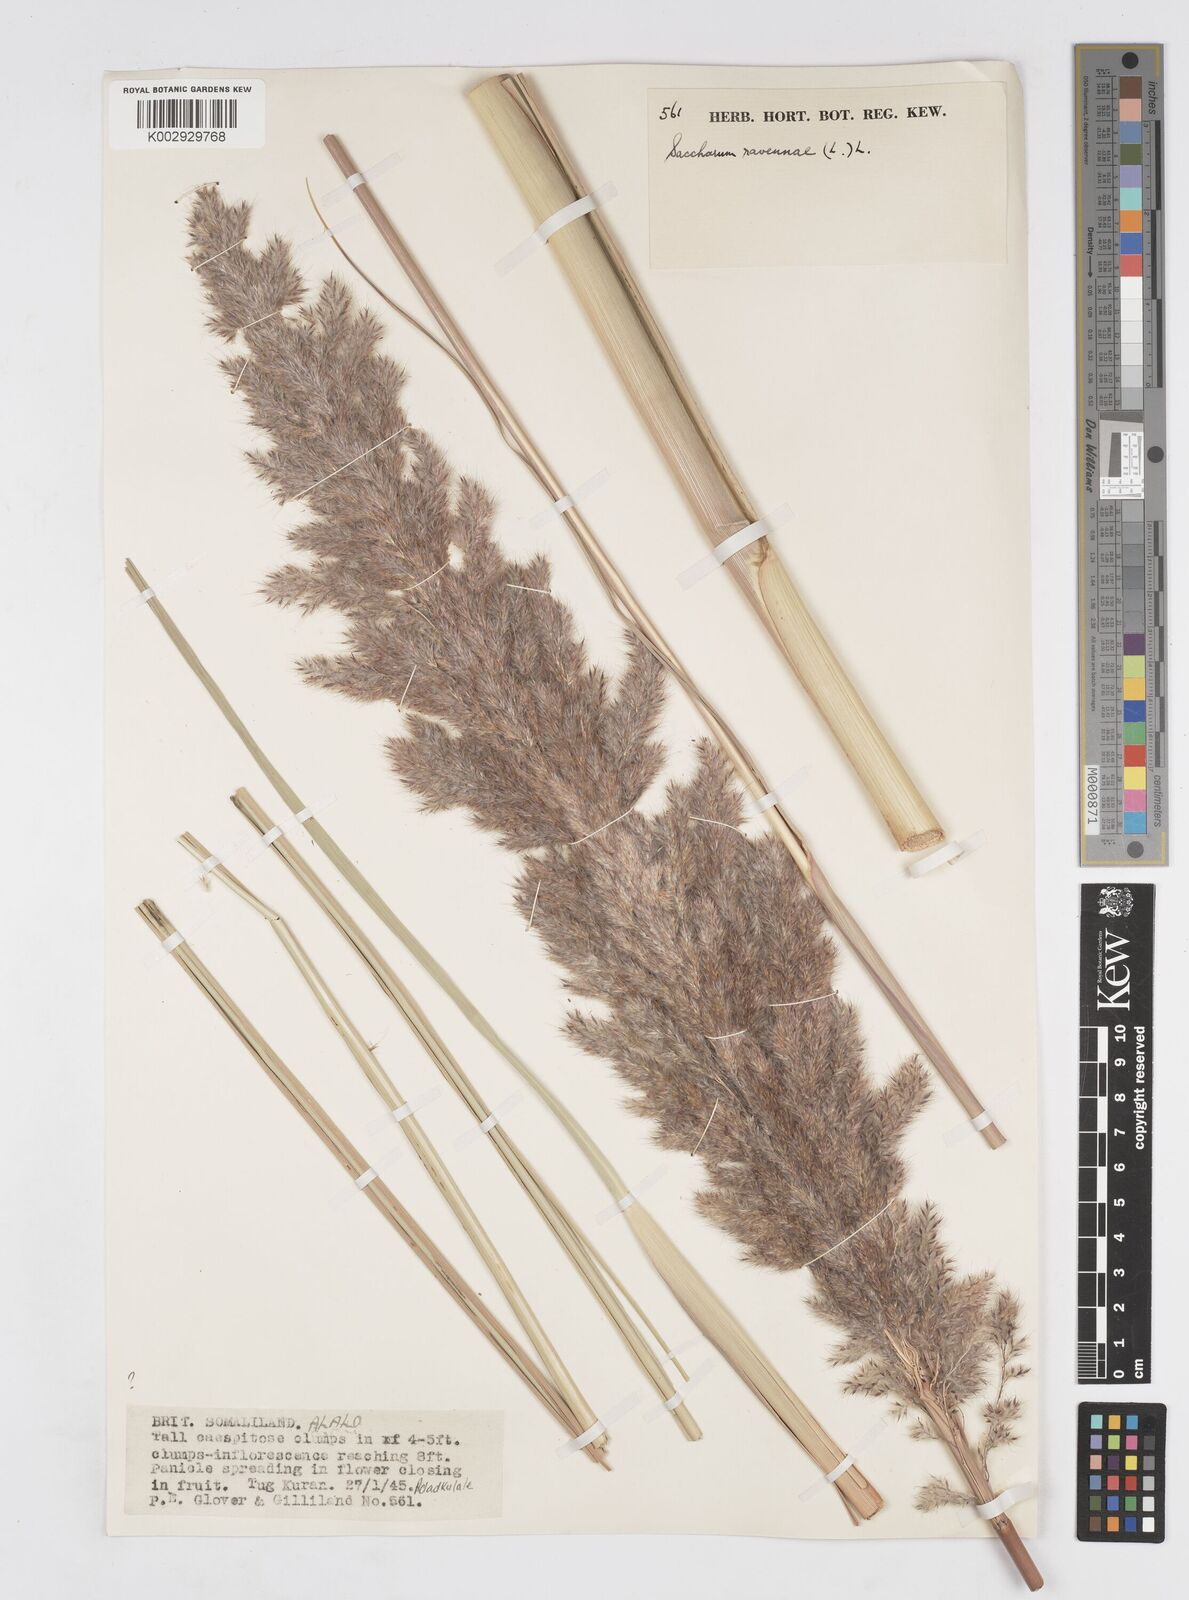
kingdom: Plantae
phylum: Tracheophyta
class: Liliopsida
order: Poales
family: Poaceae
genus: Tripidium
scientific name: Tripidium ravennae
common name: Ravenna grass
